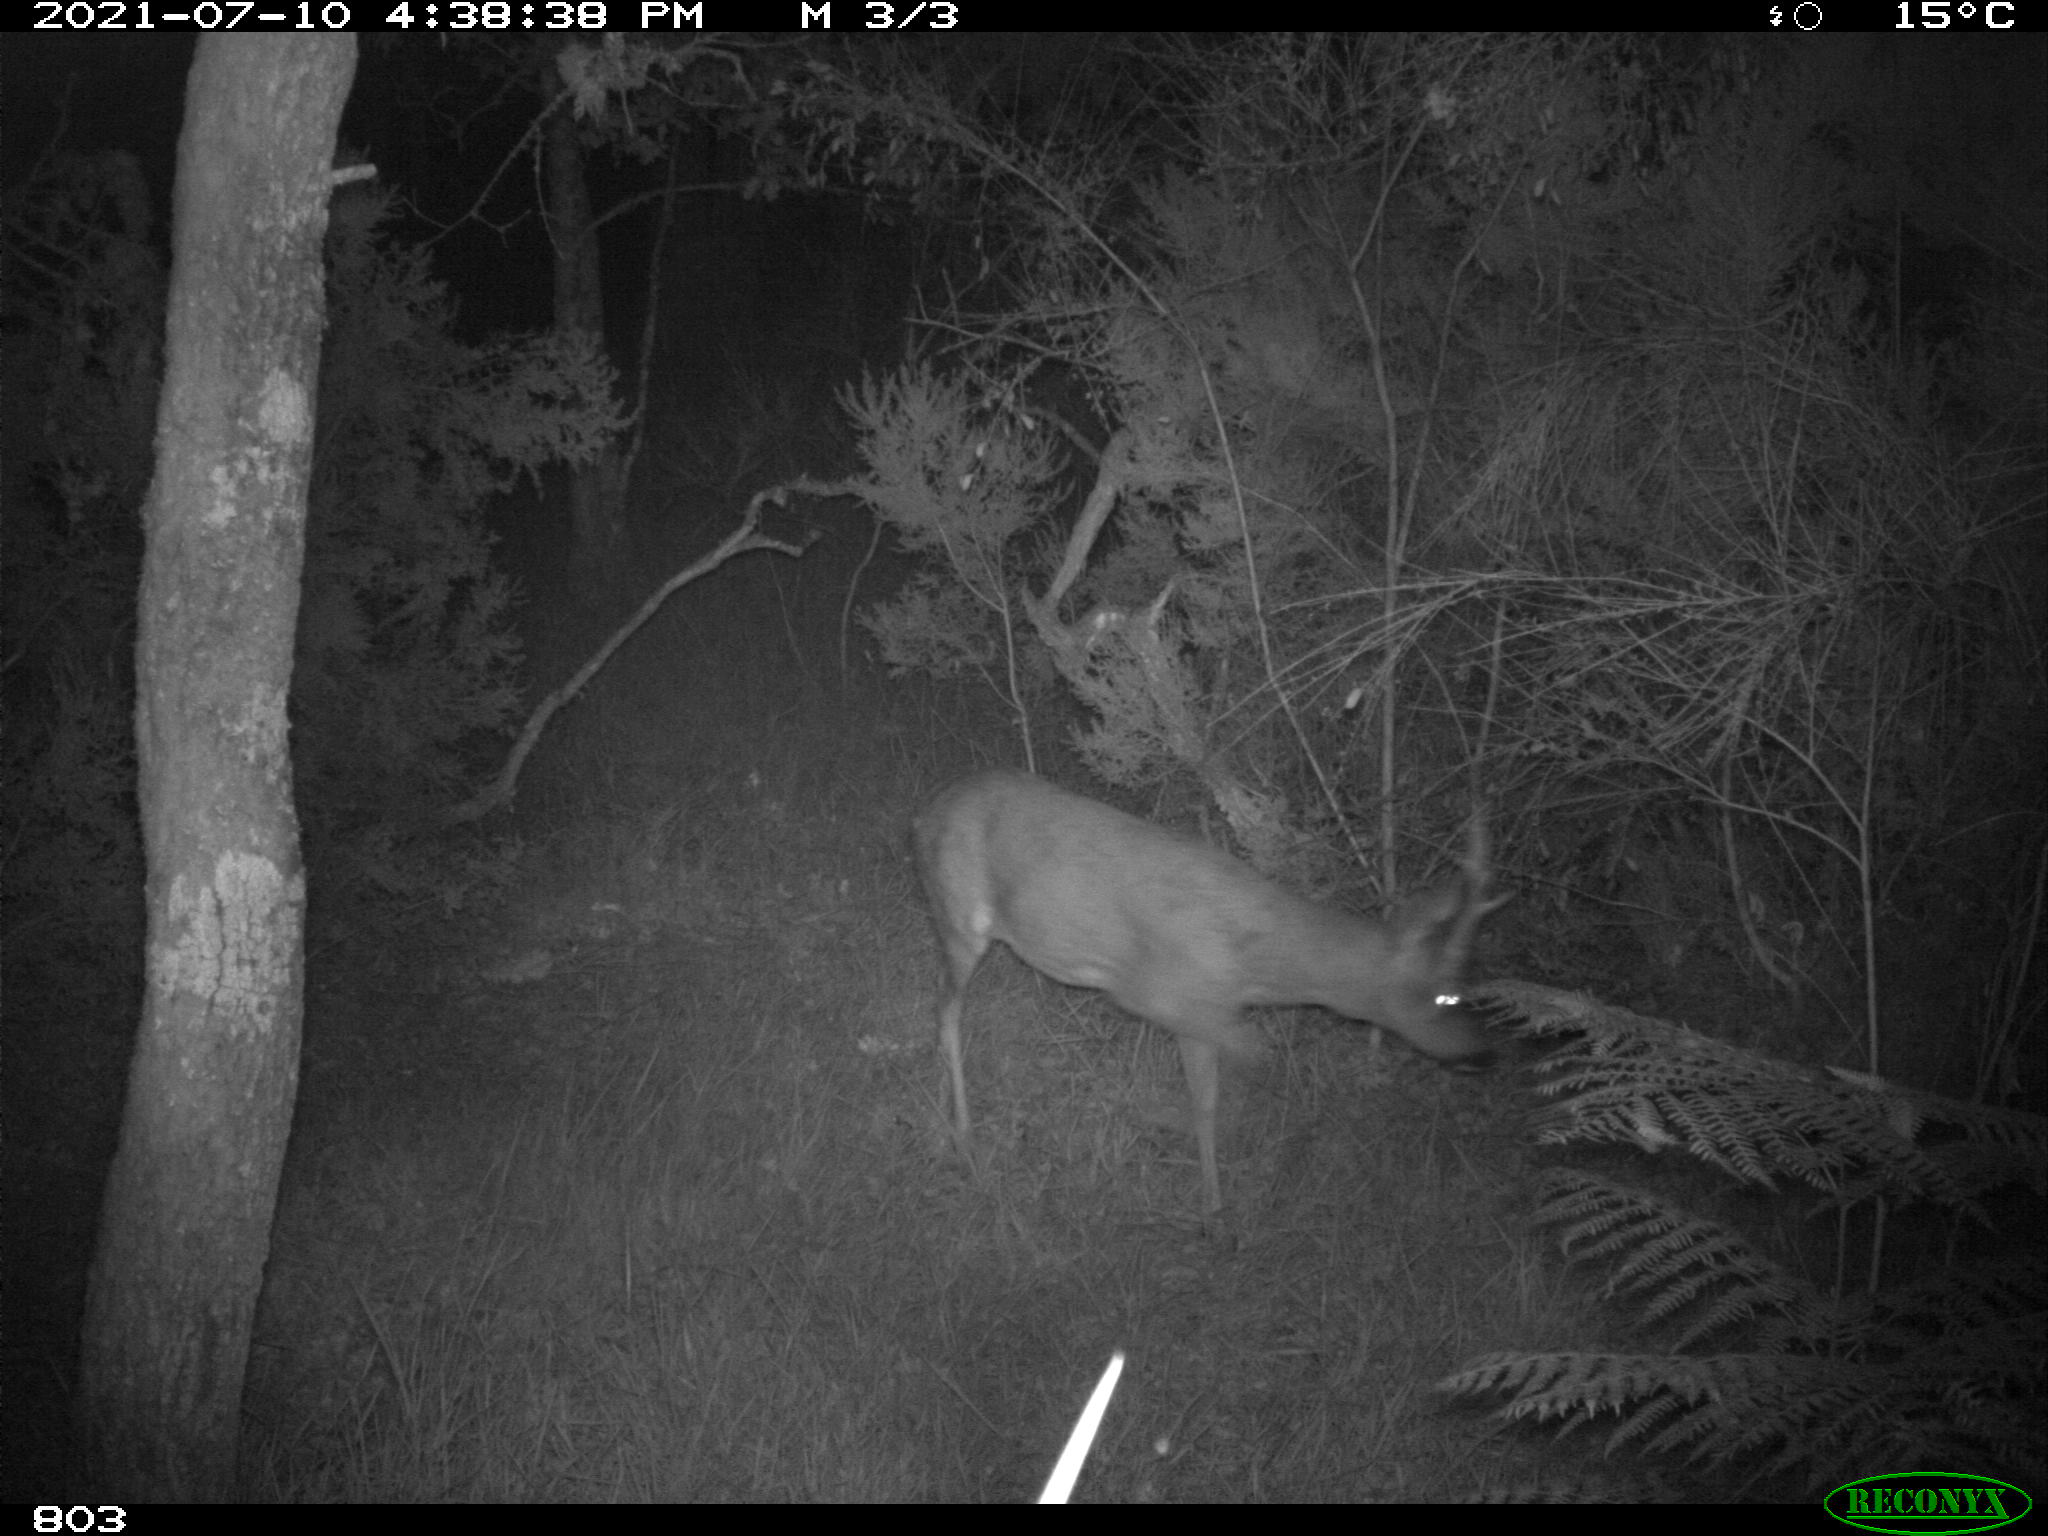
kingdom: Animalia
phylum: Chordata
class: Mammalia
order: Artiodactyla
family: Cervidae
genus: Capreolus
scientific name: Capreolus capreolus
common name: Western roe deer
